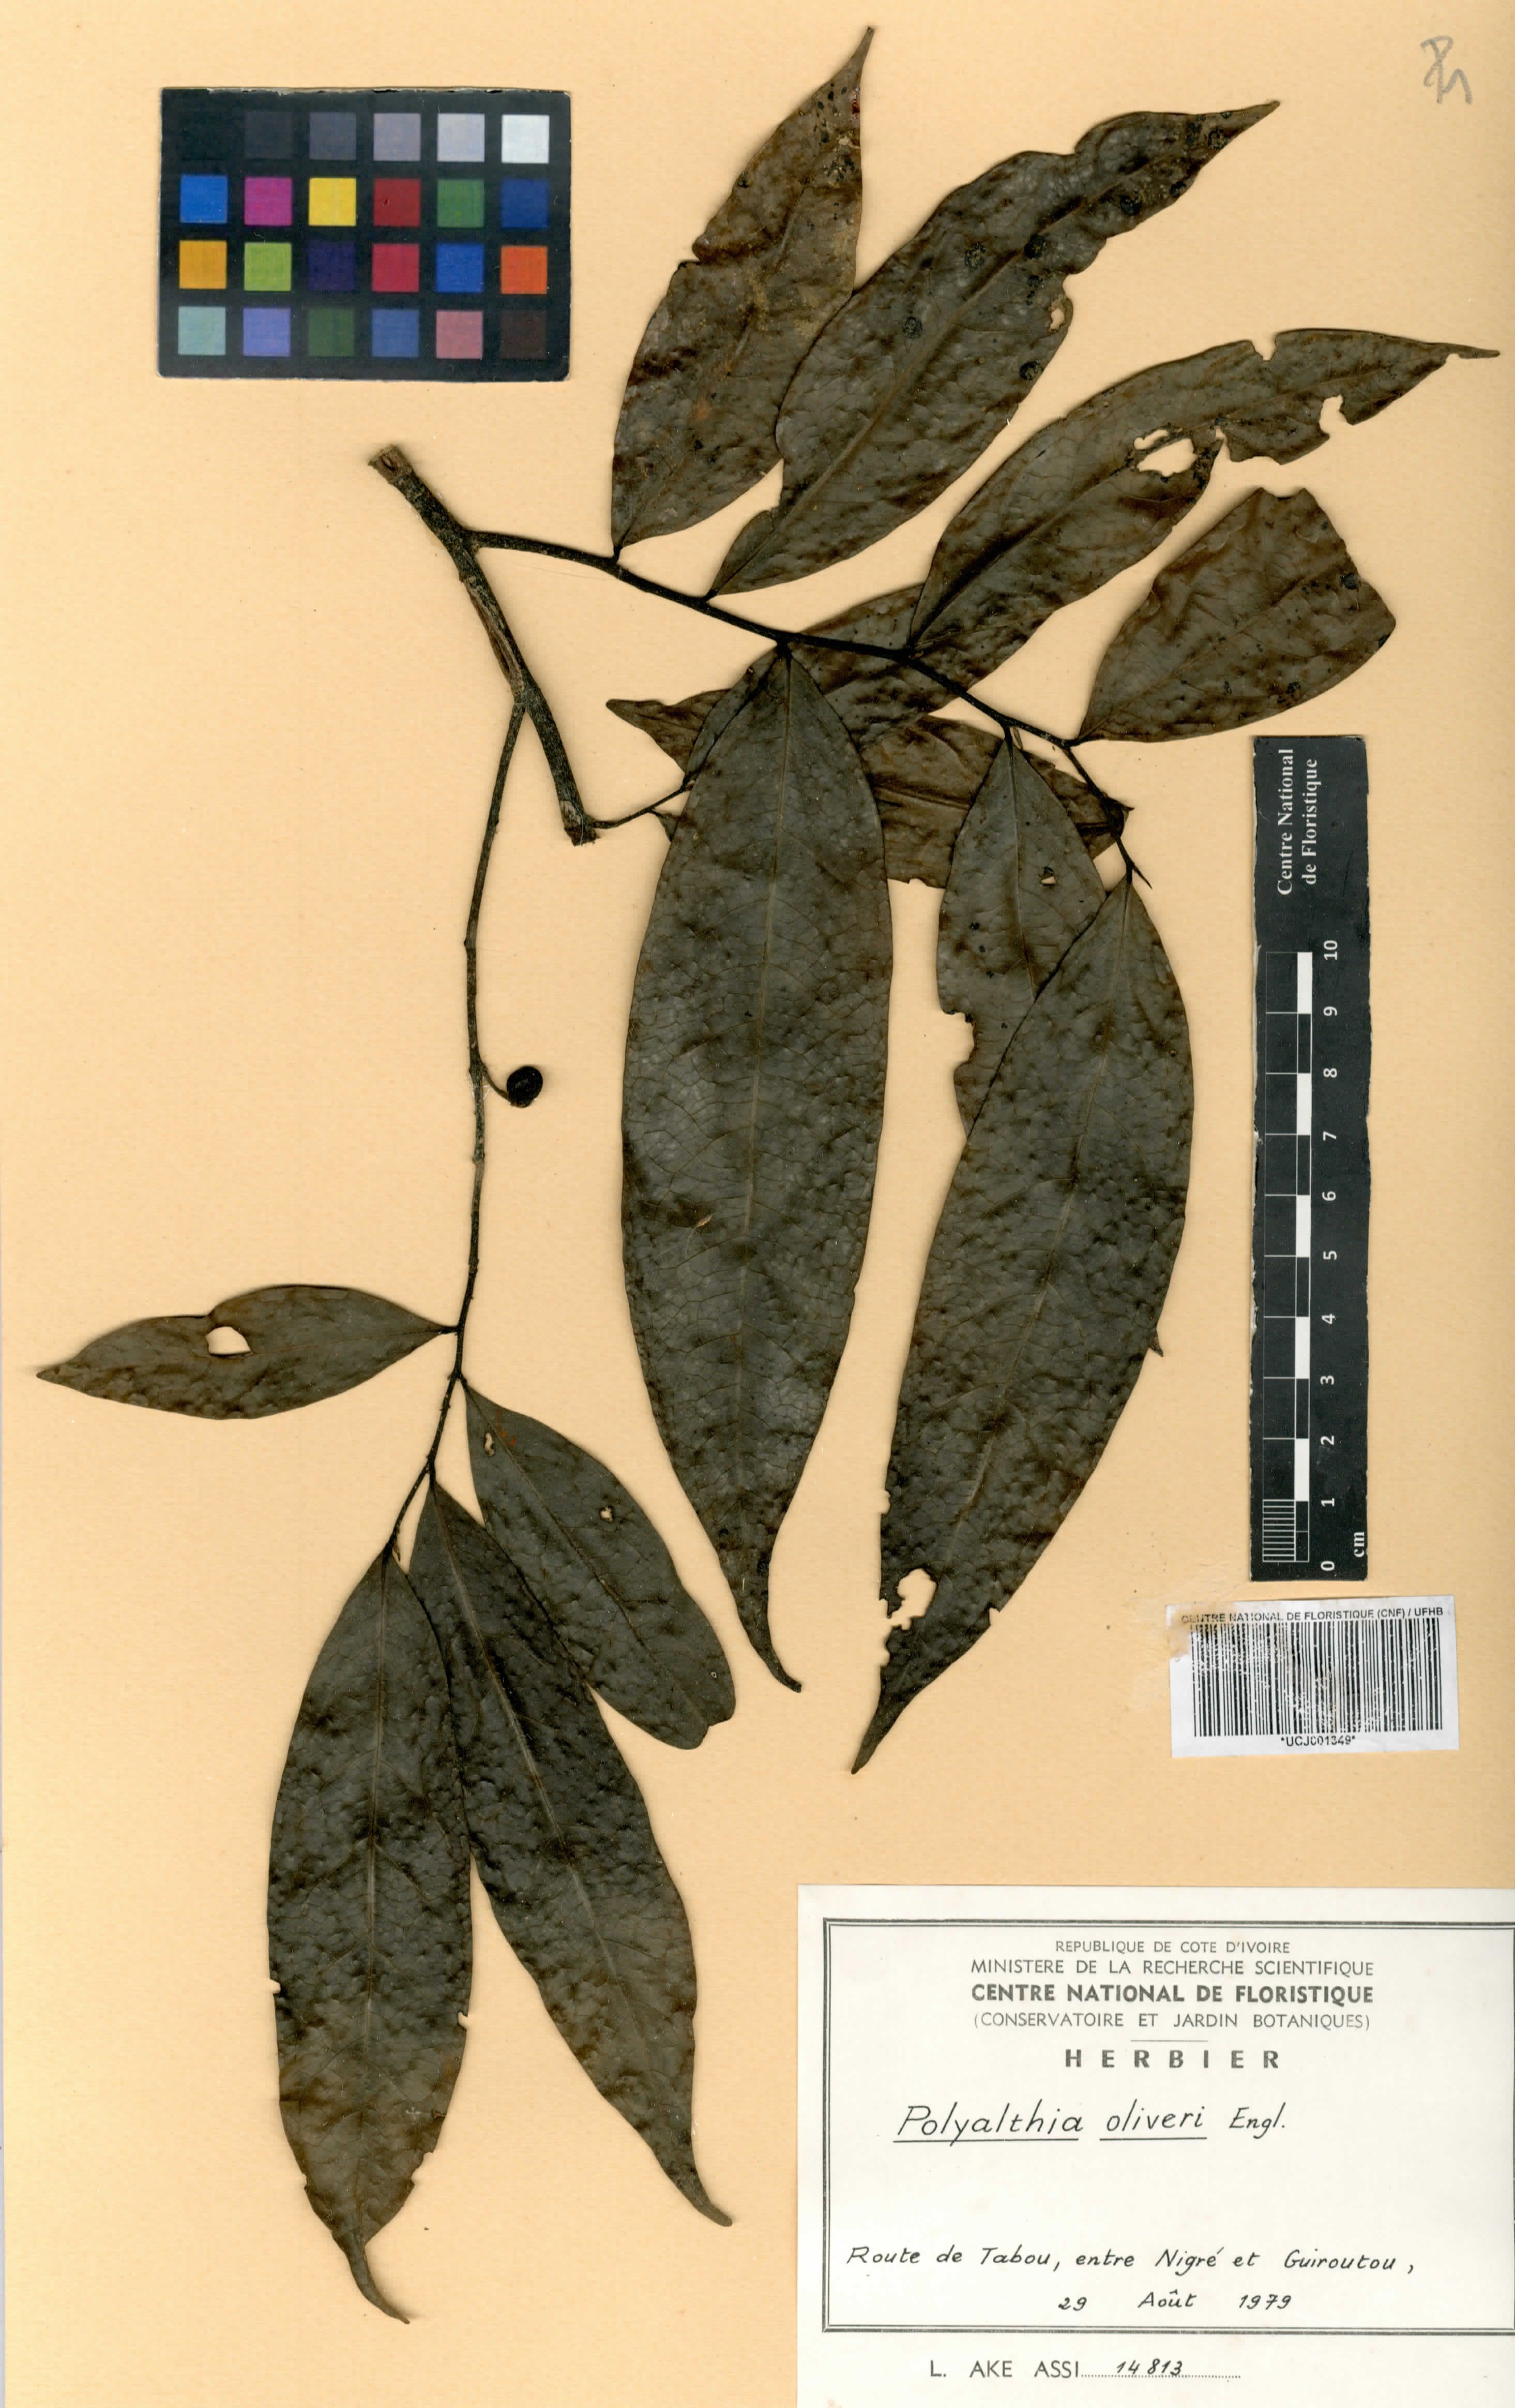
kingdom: Plantae
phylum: Tracheophyta
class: Magnoliopsida
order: Magnoliales
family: Annonaceae
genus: Greenwayodendron
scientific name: Greenwayodendron oliveri
